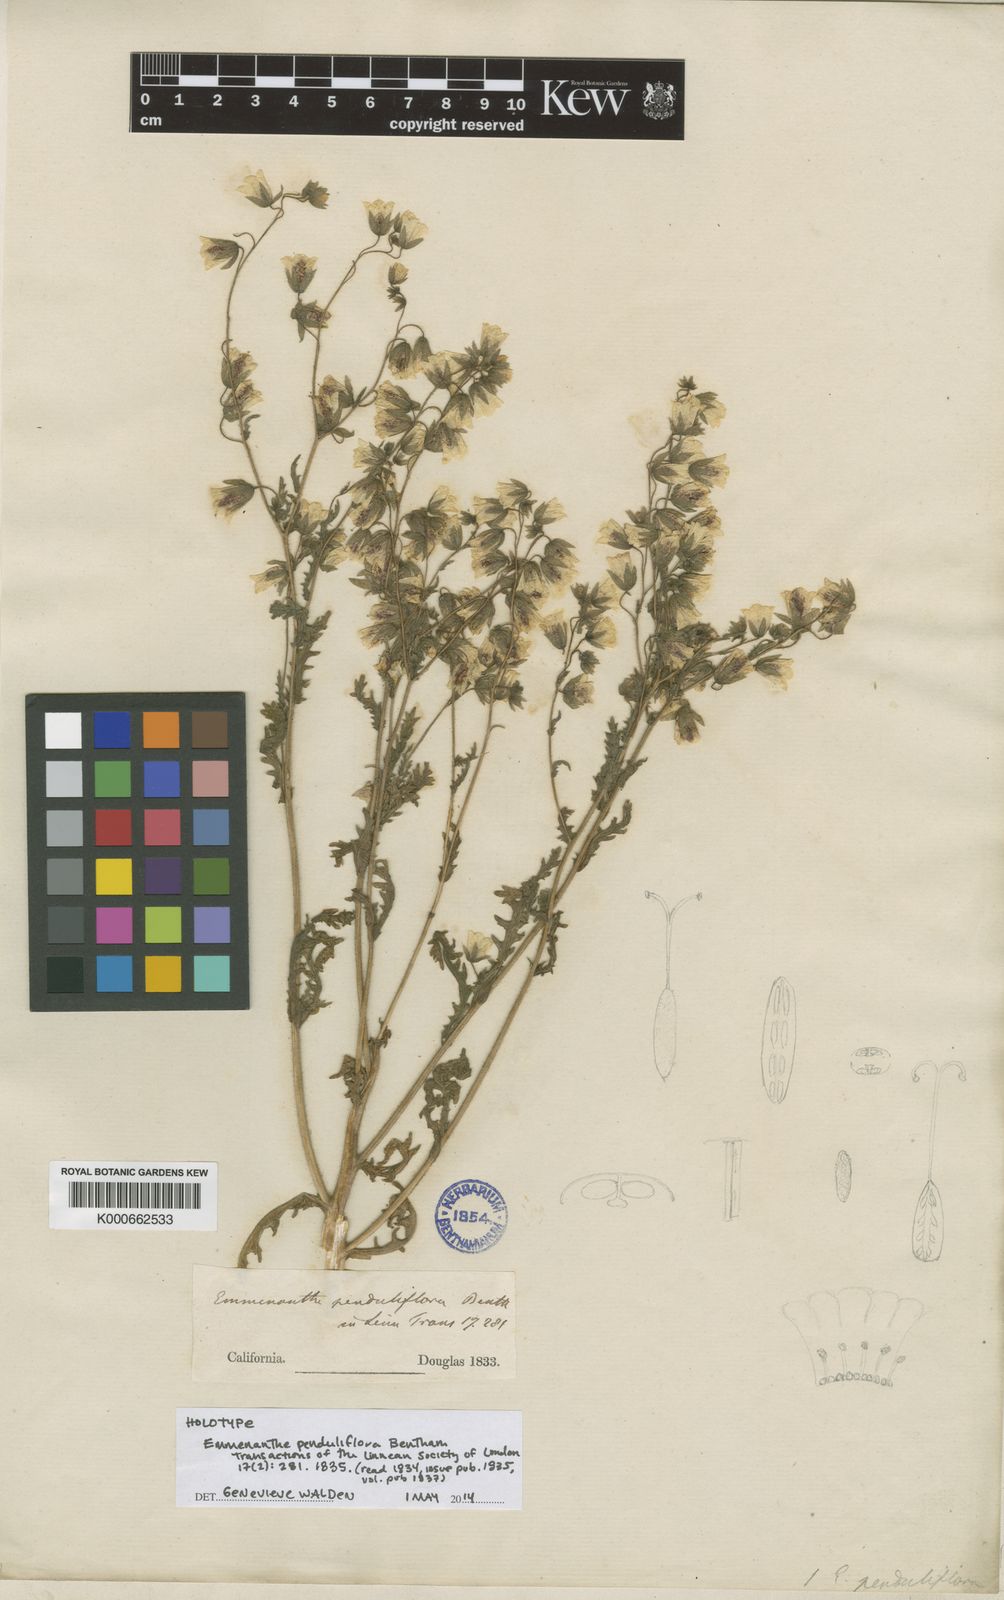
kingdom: Plantae
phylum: Tracheophyta
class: Magnoliopsida
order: Boraginales
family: Hydrophyllaceae
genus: Emmenanthe
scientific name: Emmenanthe penduliflora
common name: Whispering-bells
